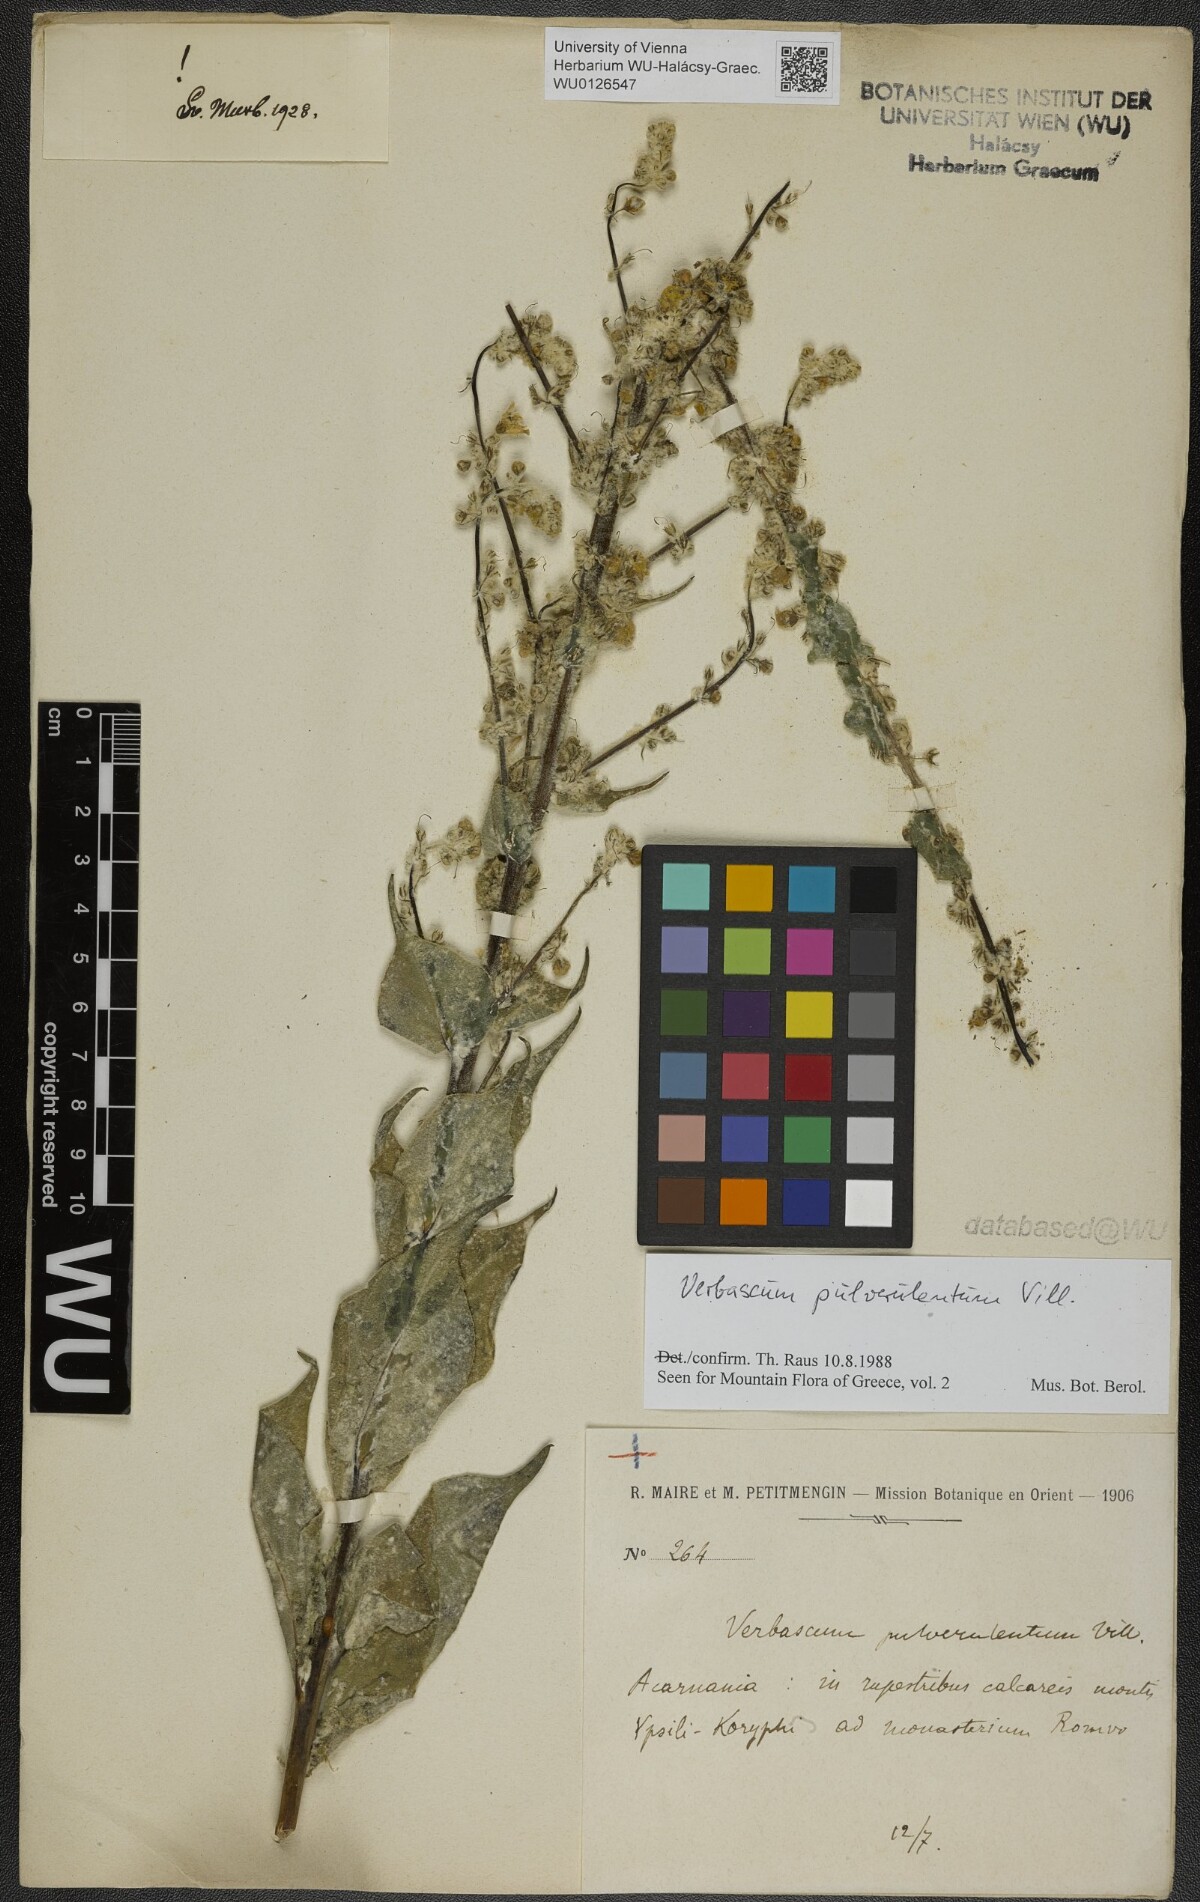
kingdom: Plantae
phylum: Tracheophyta
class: Magnoliopsida
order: Lamiales
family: Scrophulariaceae
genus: Verbascum
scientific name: Verbascum pulverulentum
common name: Broad-leaf mullein
